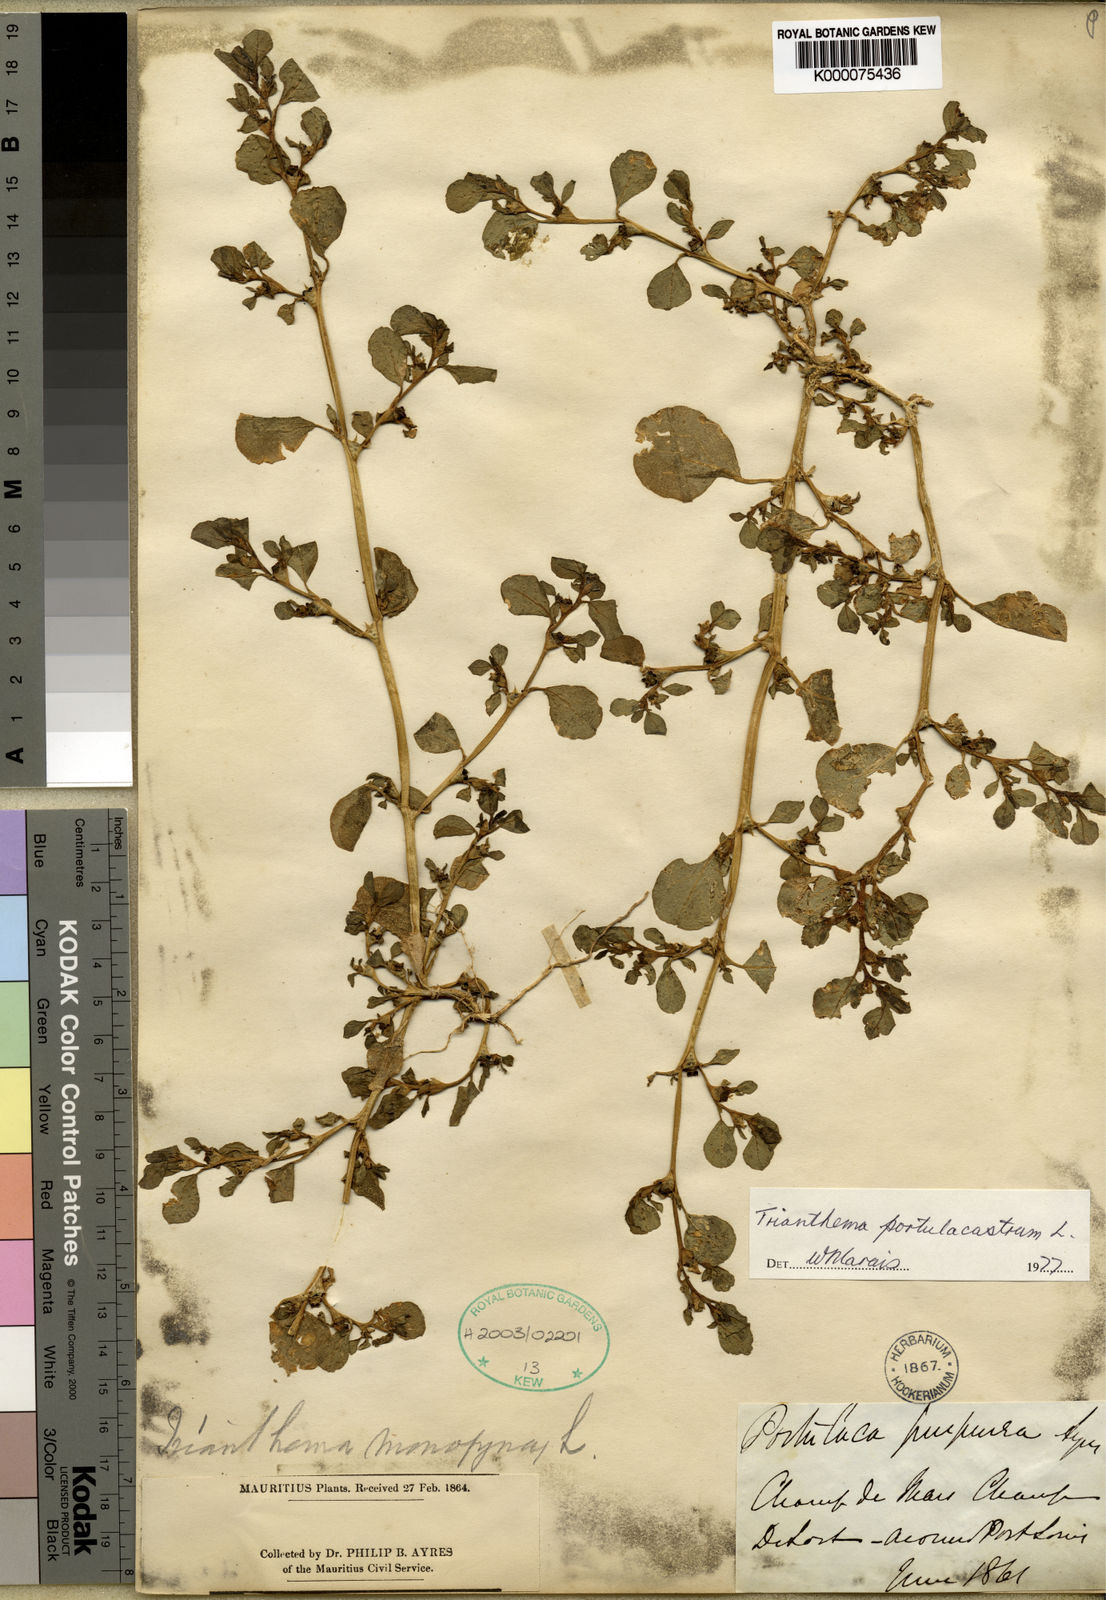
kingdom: Plantae
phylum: Tracheophyta
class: Magnoliopsida
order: Caryophyllales
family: Aizoaceae
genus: Trianthema
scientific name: Trianthema portulacastrum
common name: Desert horsepurslane
